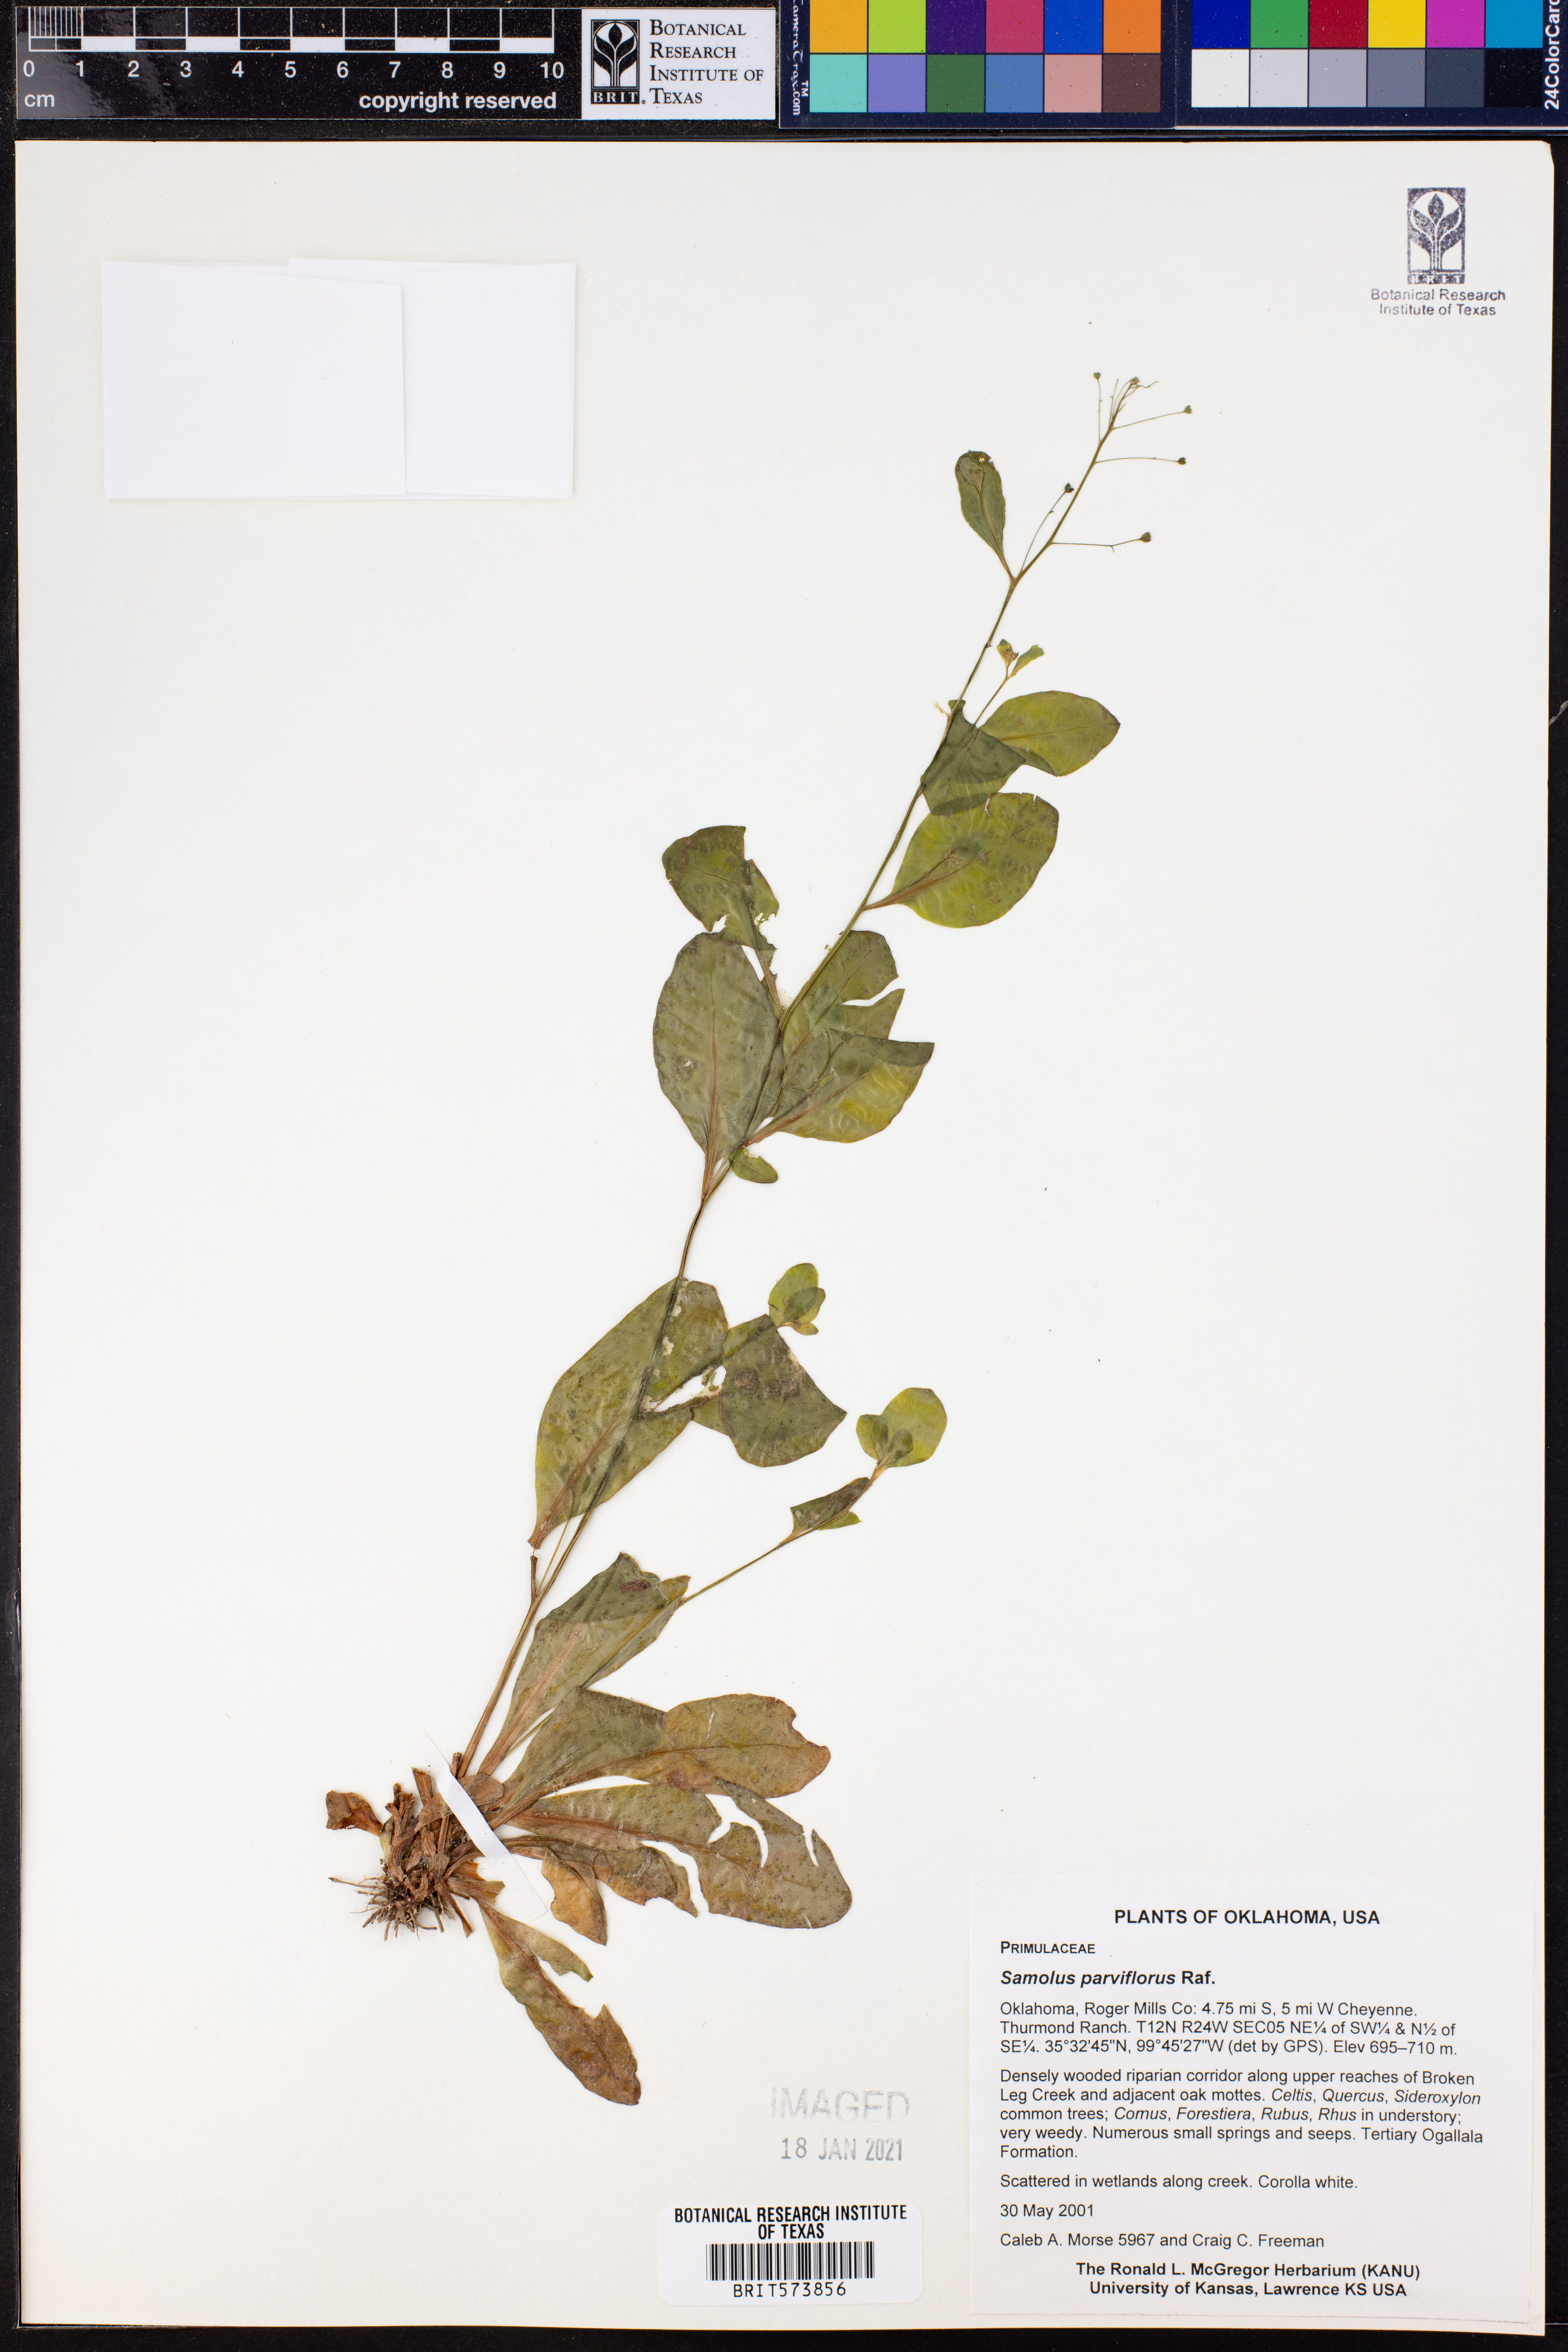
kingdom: Plantae
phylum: Tracheophyta
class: Magnoliopsida
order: Ericales
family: Primulaceae
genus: Samolus
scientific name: Samolus parviflorus
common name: False water pimpernel
